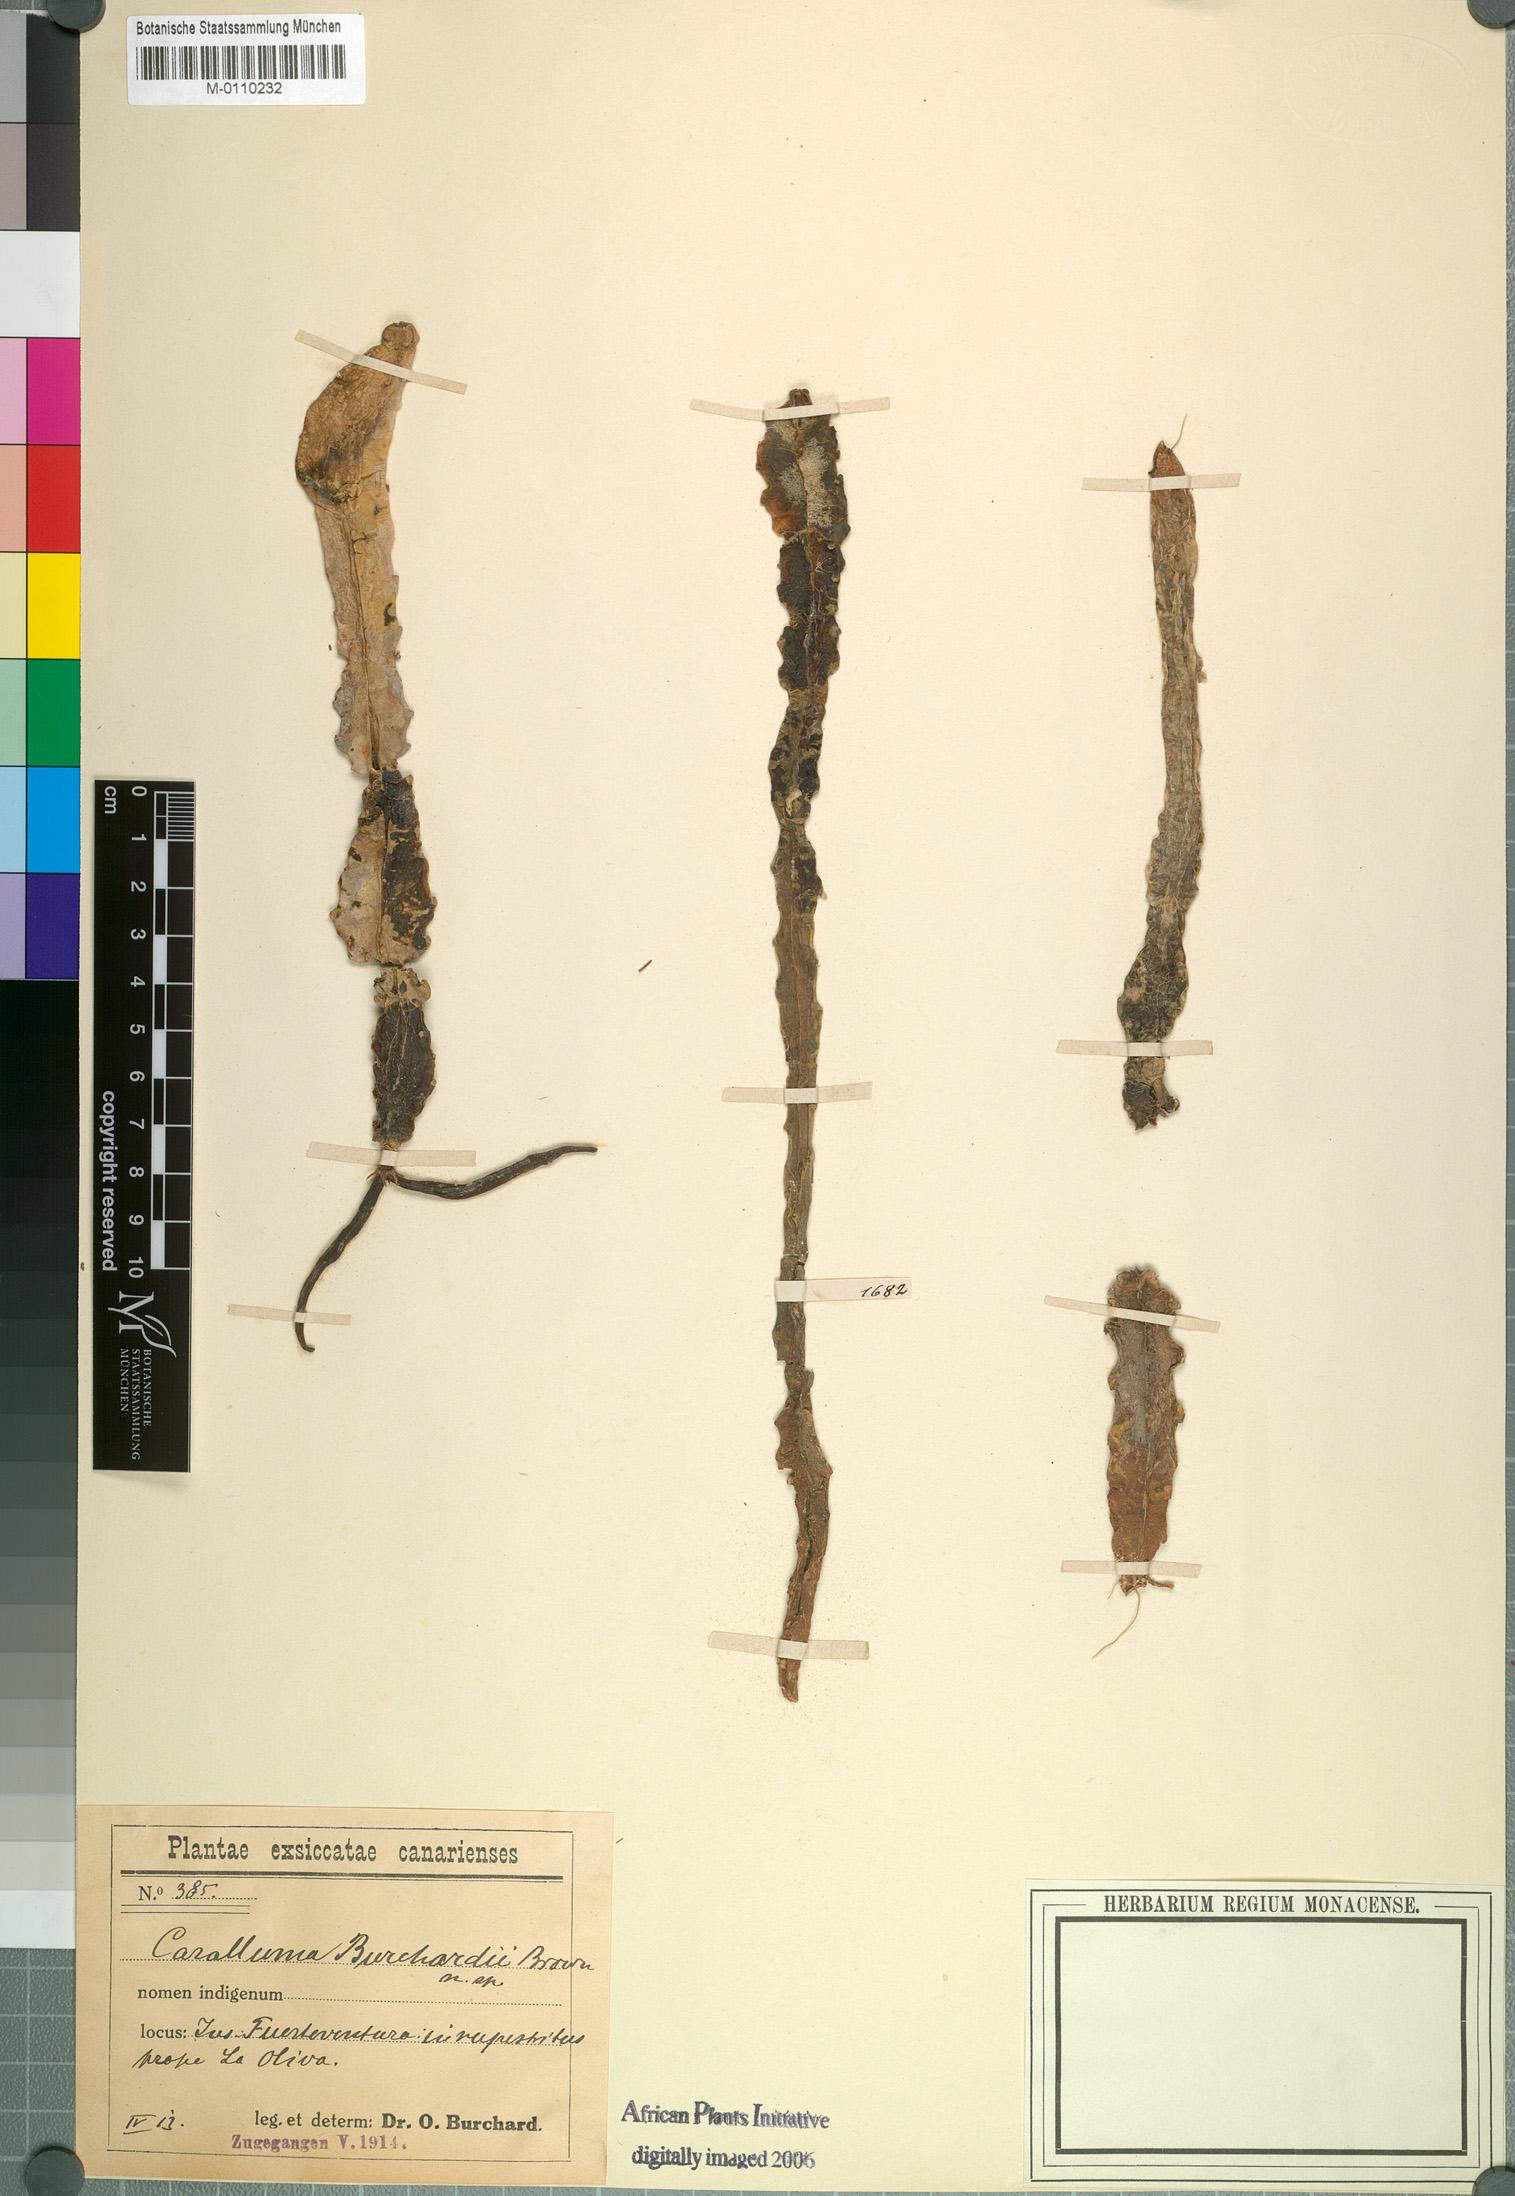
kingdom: Plantae
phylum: Tracheophyta
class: Magnoliopsida
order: Gentianales
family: Apocynaceae
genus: Ceropegia
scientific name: Ceropegia burchardii
